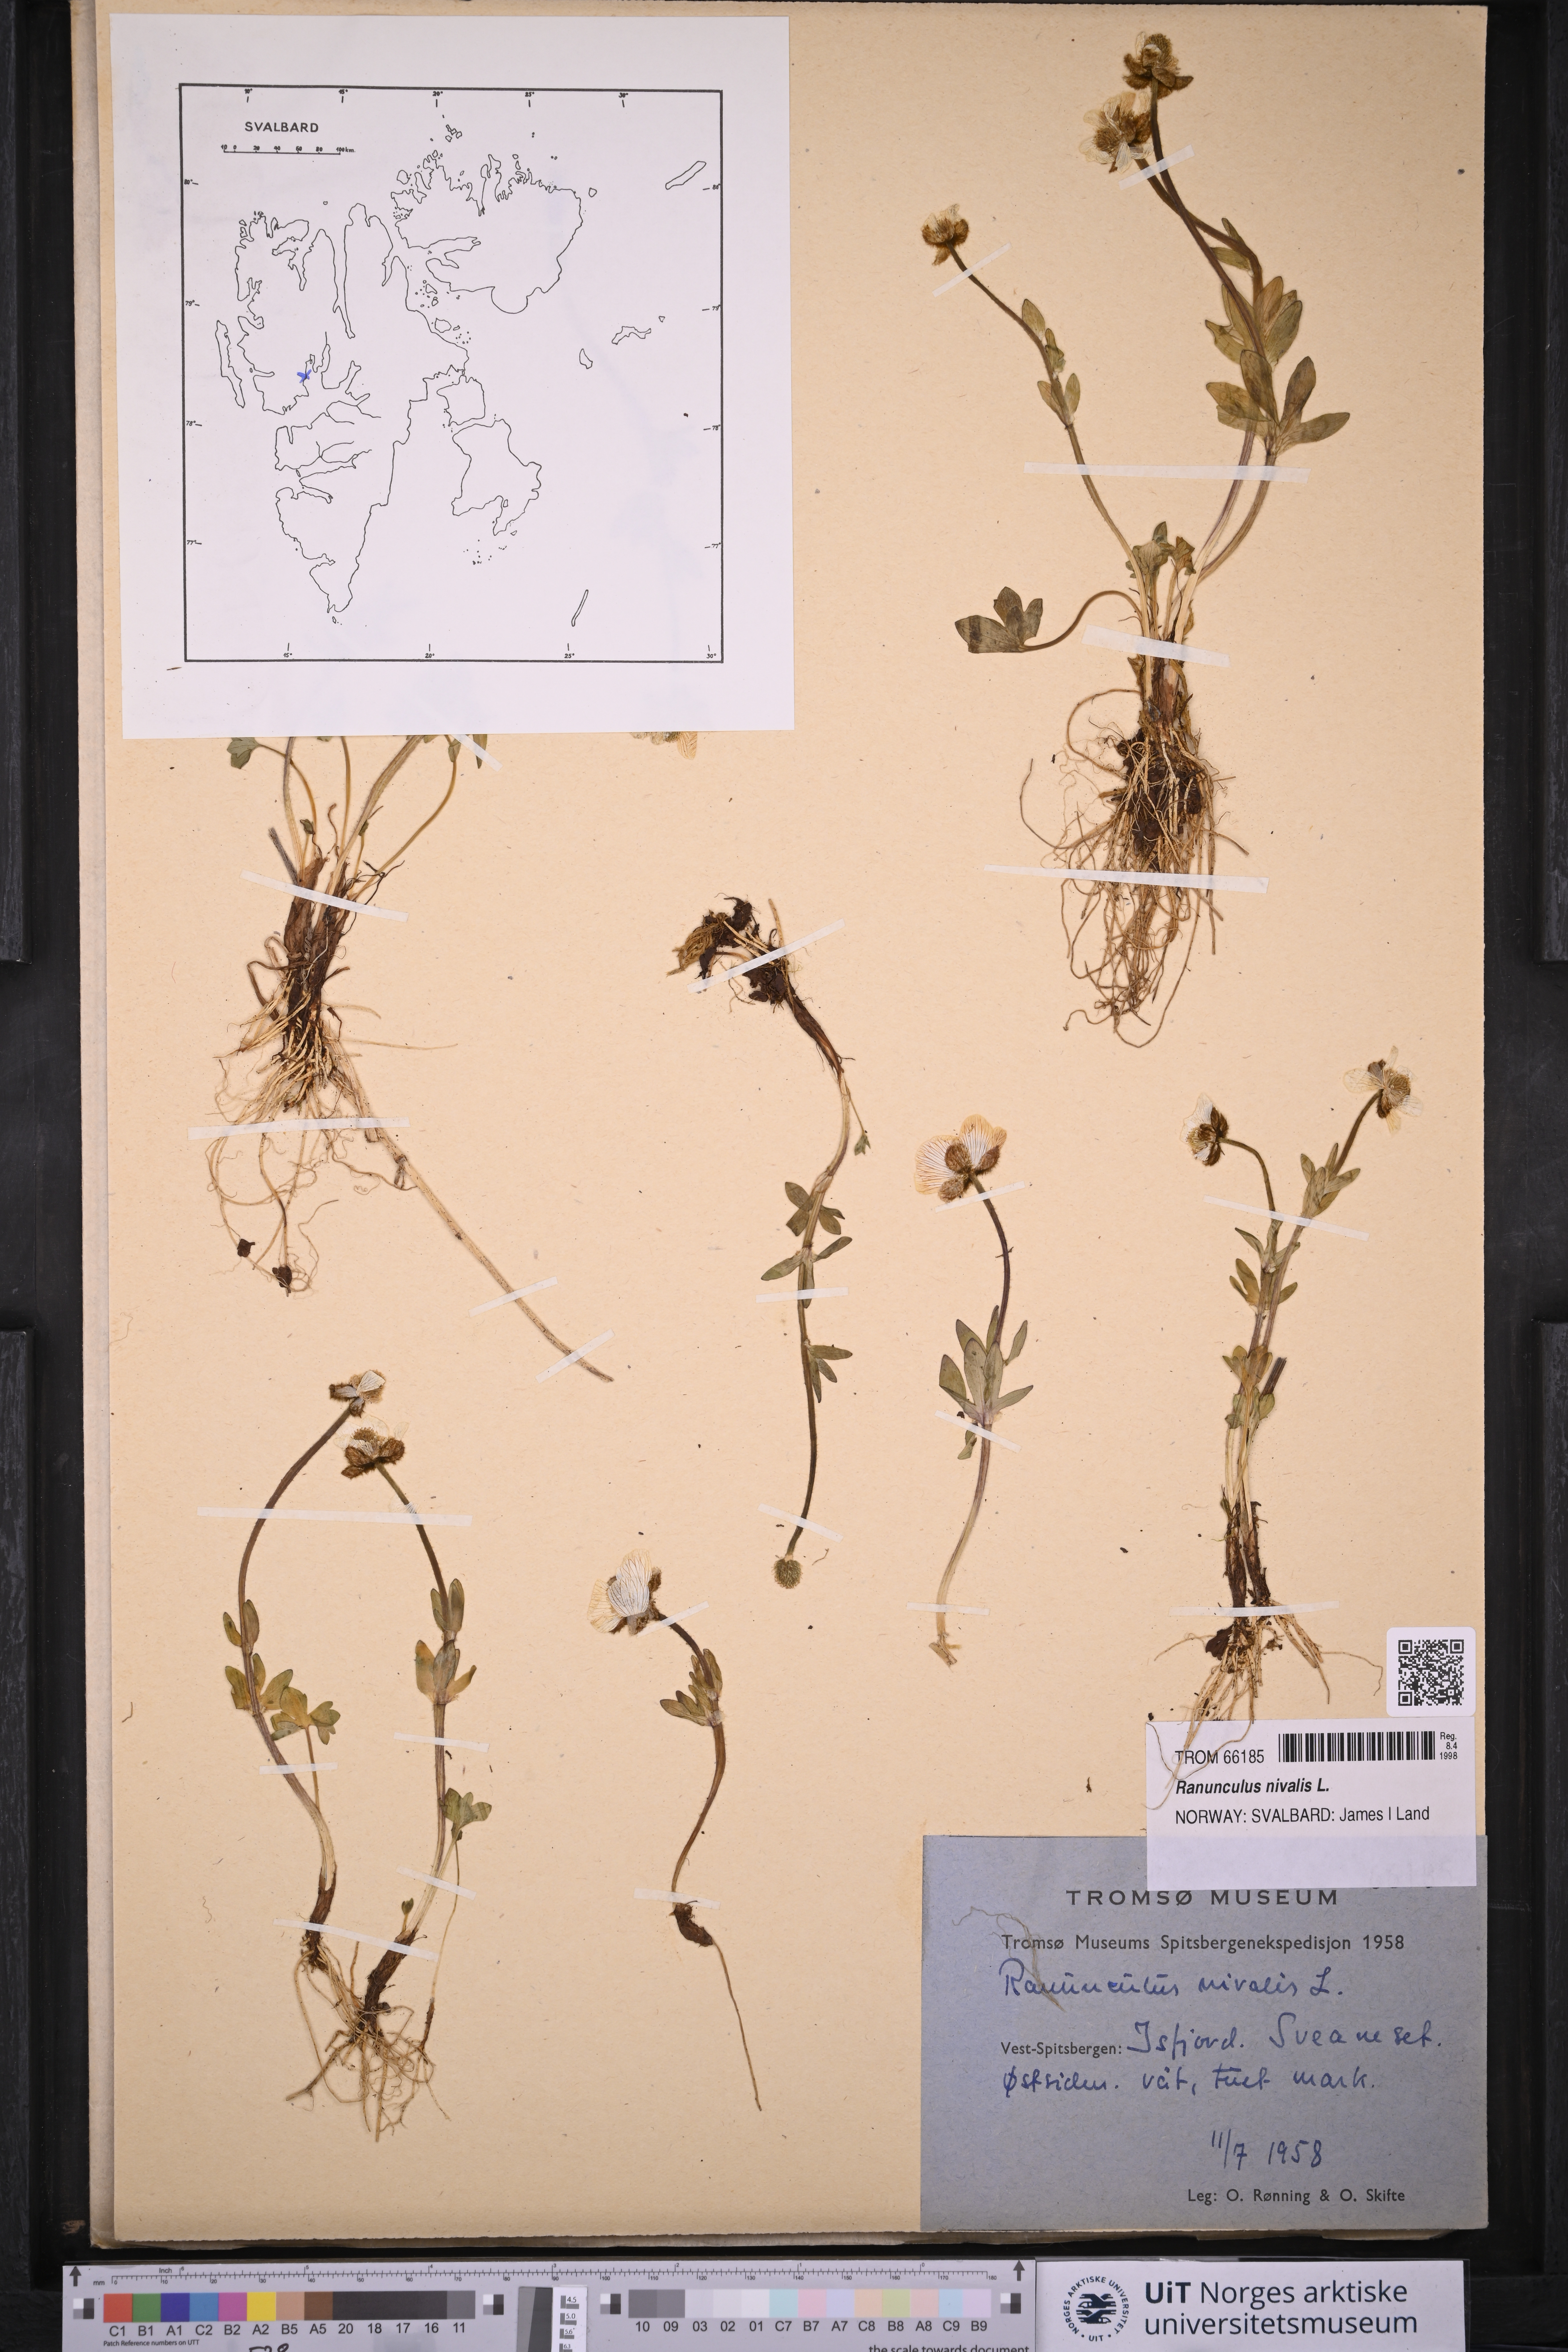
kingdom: Plantae
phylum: Tracheophyta
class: Magnoliopsida
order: Ranunculales
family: Ranunculaceae
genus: Ranunculus
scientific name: Ranunculus nivalis
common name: Snow buttercup
